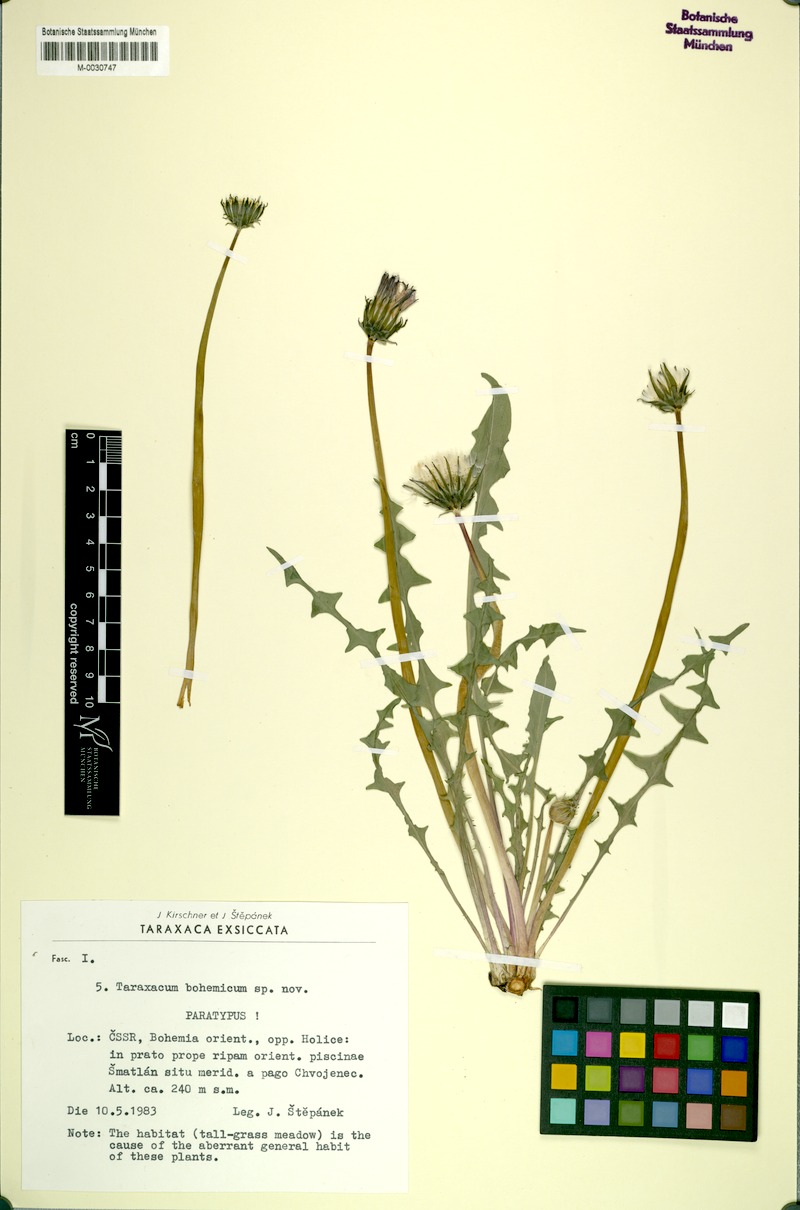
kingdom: Plantae
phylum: Tracheophyta
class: Magnoliopsida
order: Asterales
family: Asteraceae
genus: Taraxacum
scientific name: Taraxacum bohemicum
